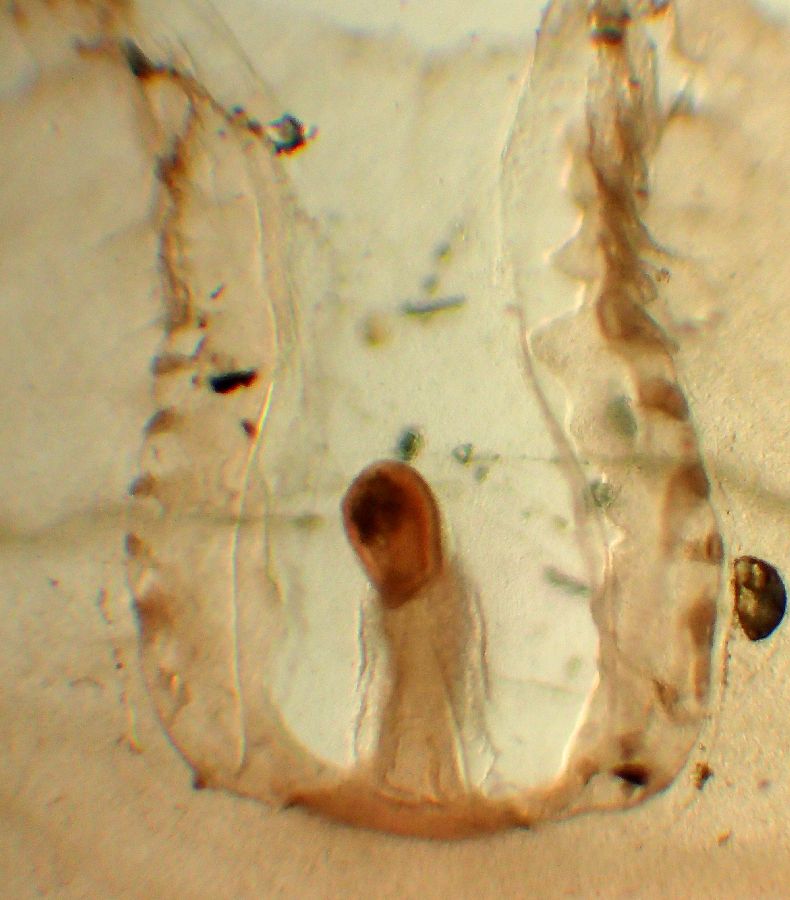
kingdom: Animalia
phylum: Cnidaria
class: Scyphozoa
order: Semaeostomeae
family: Cyaneidae
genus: Cyanea
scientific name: Cyanea capillata
